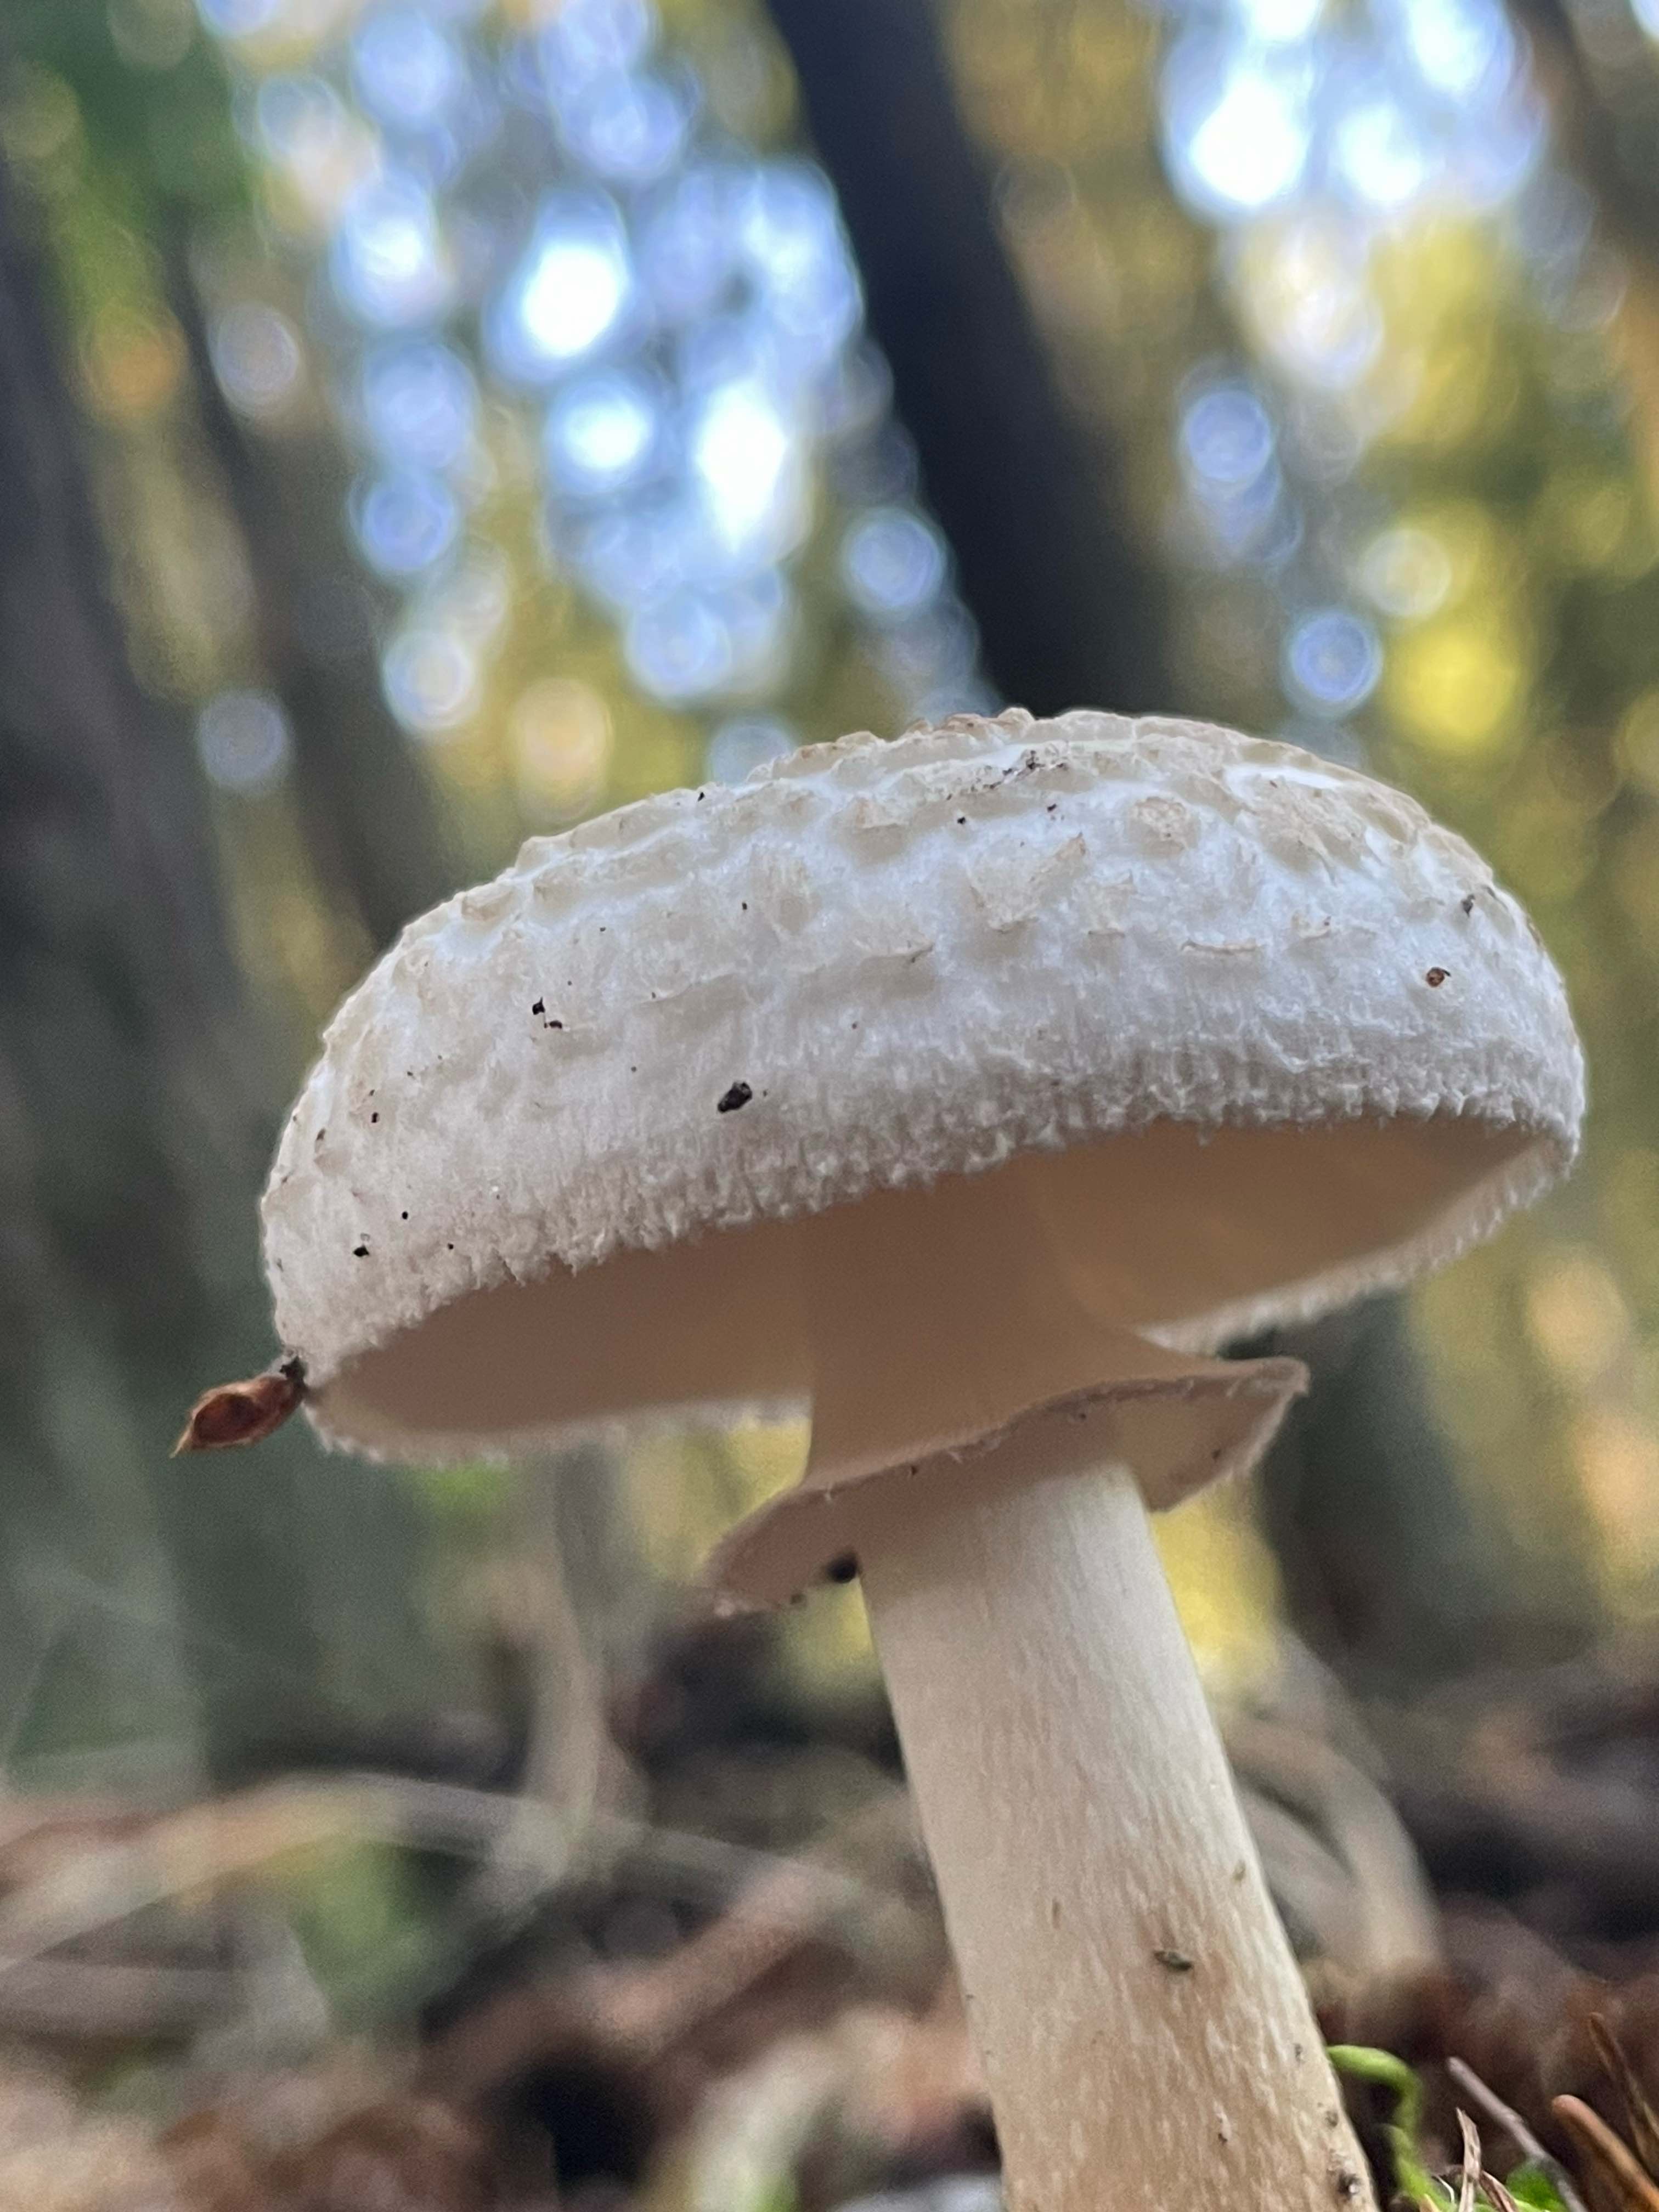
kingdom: Fungi
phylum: Basidiomycota
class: Agaricomycetes
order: Agaricales
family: Amanitaceae
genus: Amanita
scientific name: Amanita citrina
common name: kugleknoldet fluesvamp
